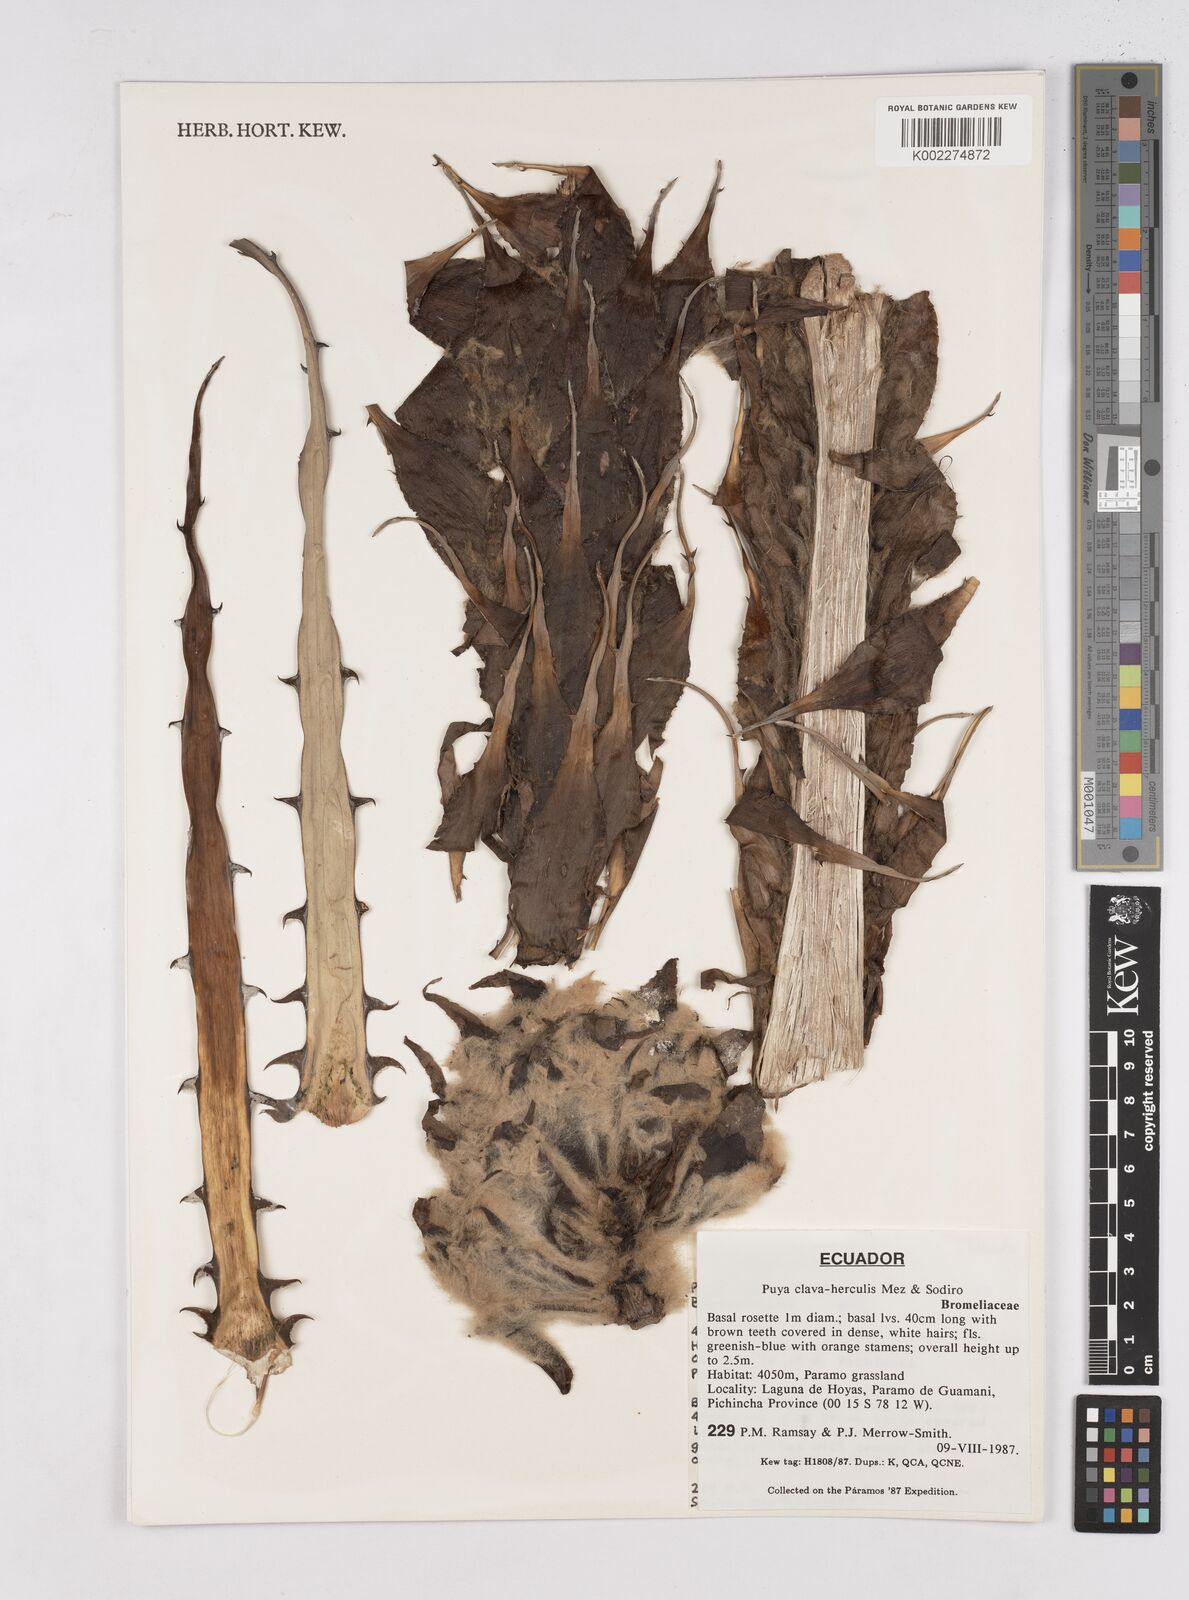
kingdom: Plantae
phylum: Tracheophyta
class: Liliopsida
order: Poales
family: Bromeliaceae
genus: Puya
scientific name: Puya clava-herculis
